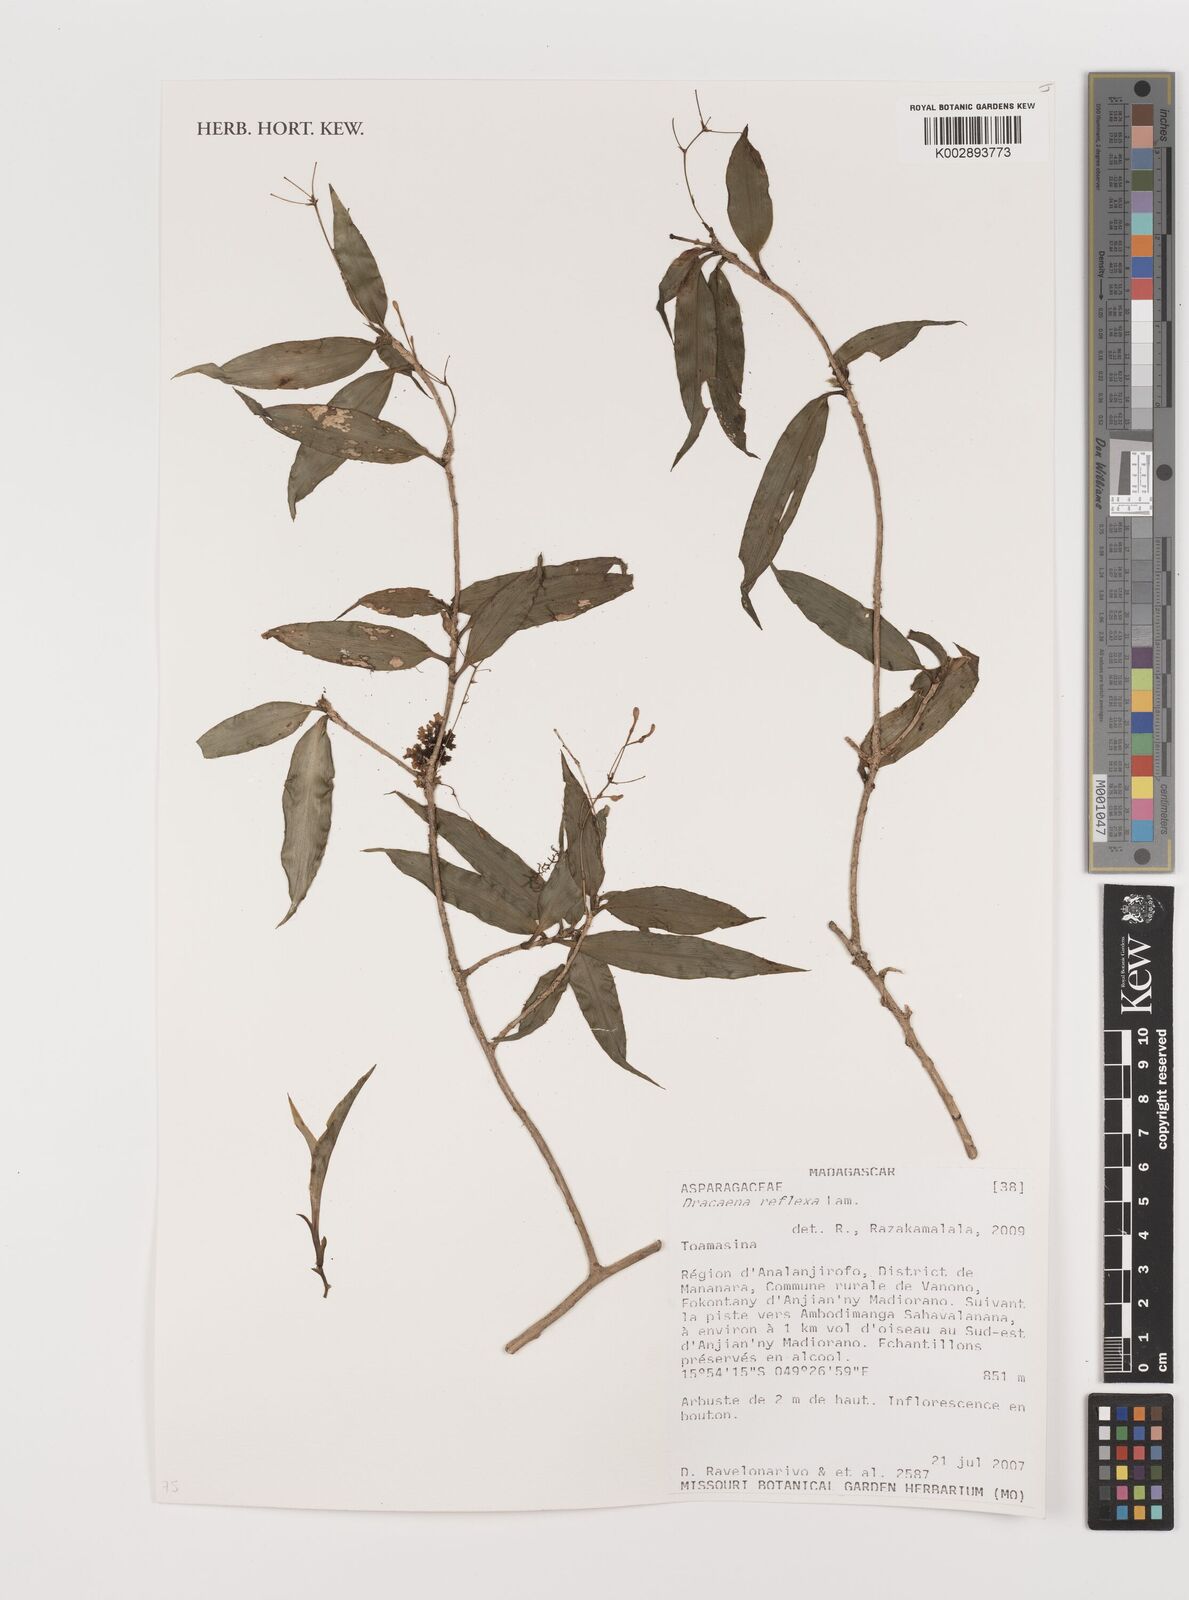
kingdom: Plantae
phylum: Tracheophyta
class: Liliopsida
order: Asparagales
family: Asparagaceae
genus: Dracaena
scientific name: Dracaena reflexa
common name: Song-of-india
